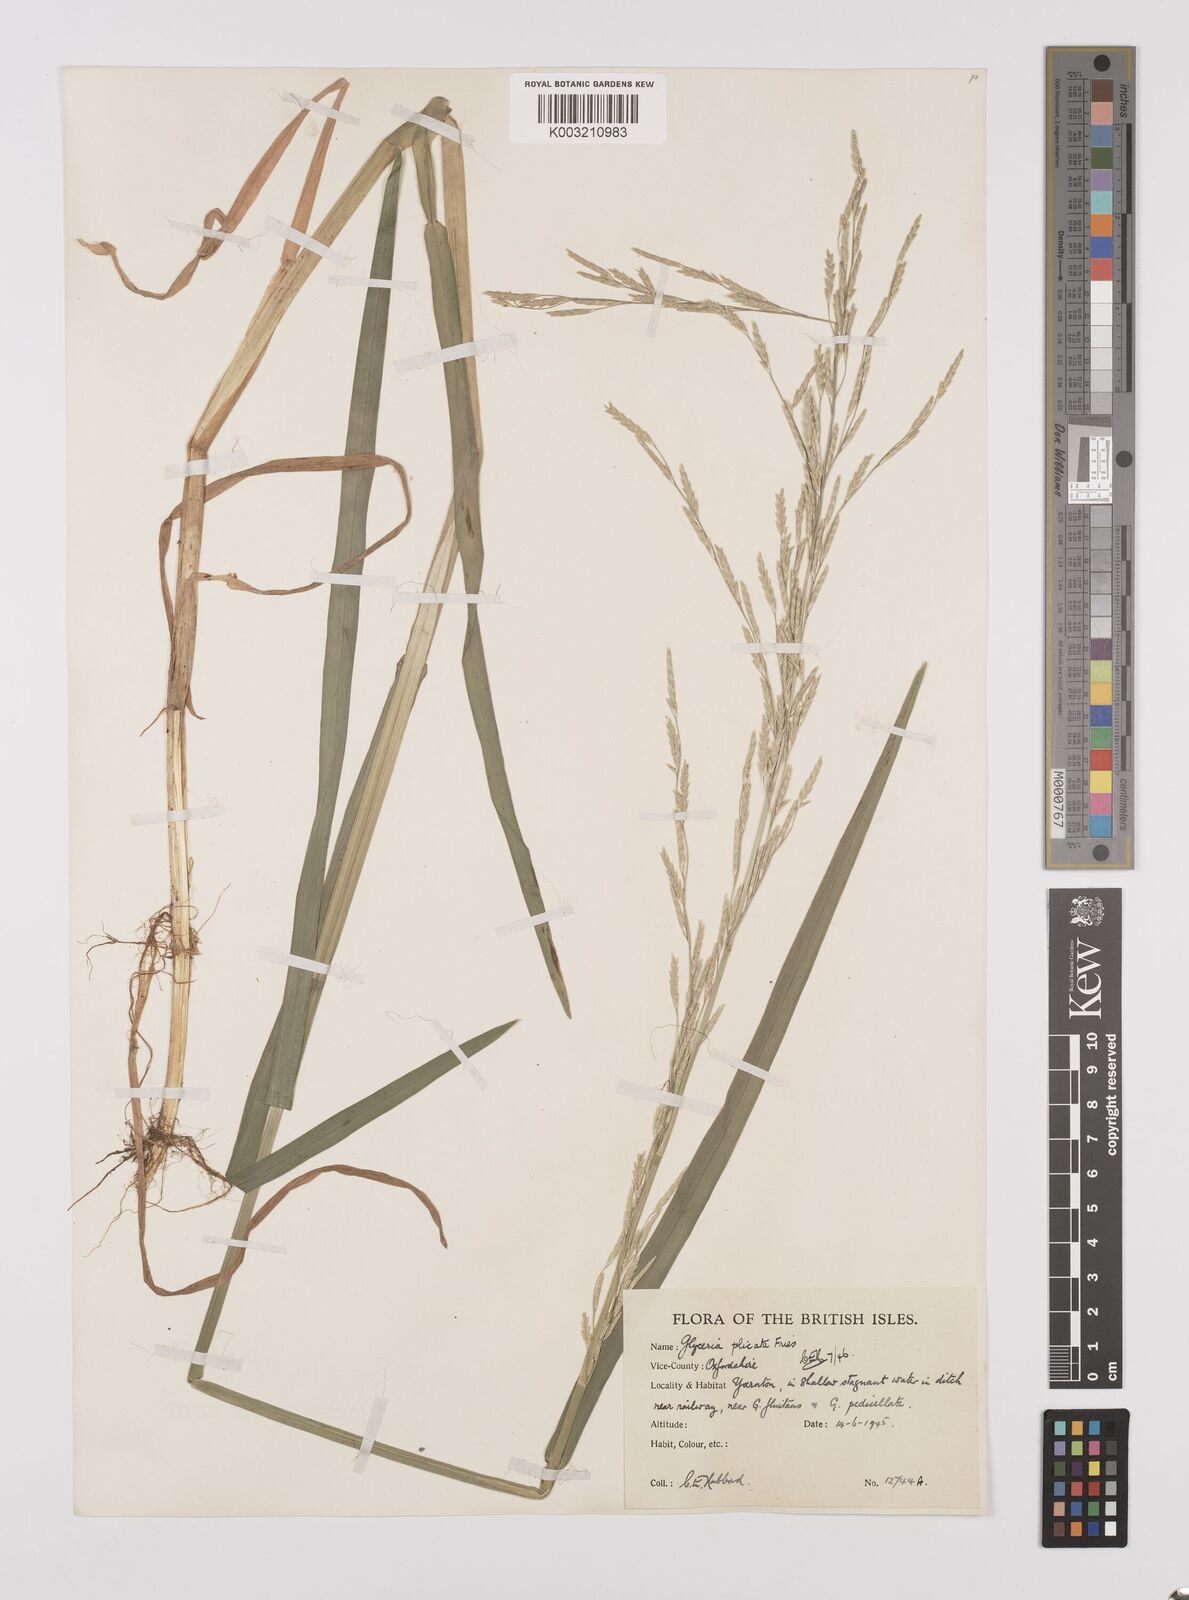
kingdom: Plantae
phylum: Tracheophyta
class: Liliopsida
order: Poales
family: Poaceae
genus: Glyceria
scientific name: Glyceria notata
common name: Plicate sweet-grass
